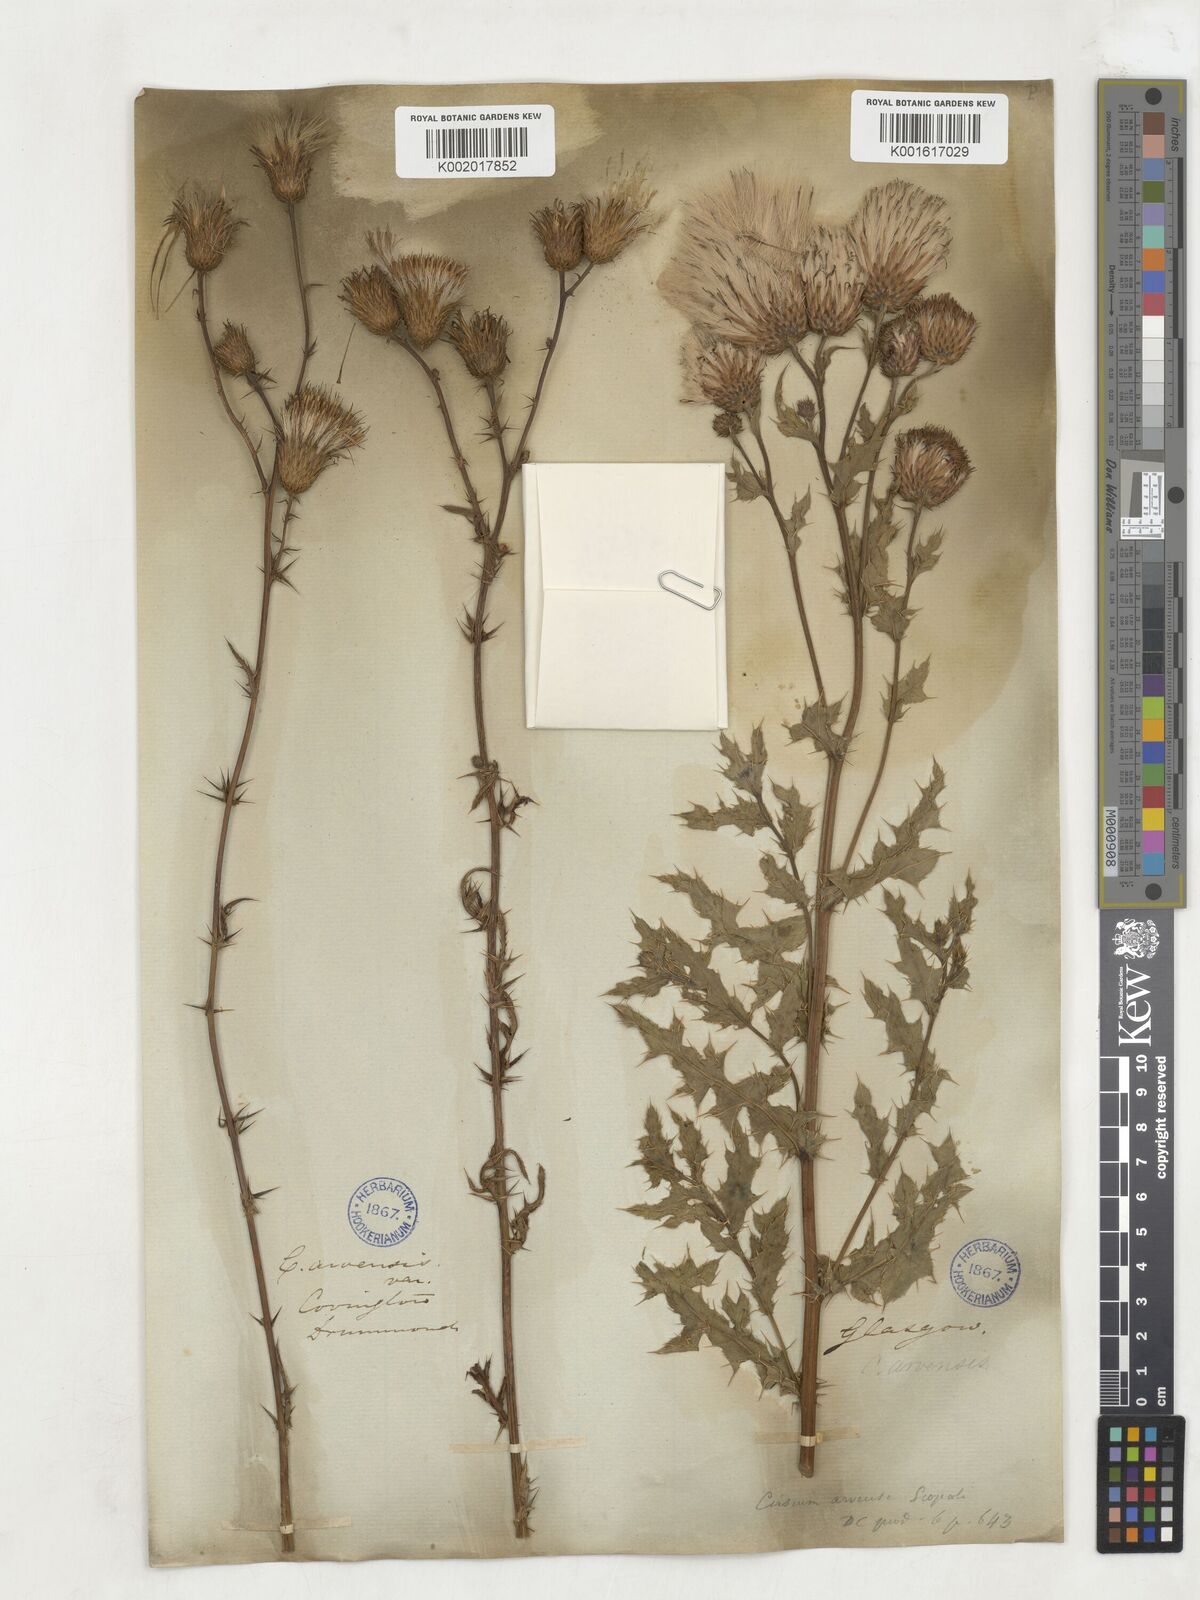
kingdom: Plantae
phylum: Tracheophyta
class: Magnoliopsida
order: Asterales
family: Asteraceae
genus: Cirsium
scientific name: Cirsium arvense
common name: Creeping thistle
